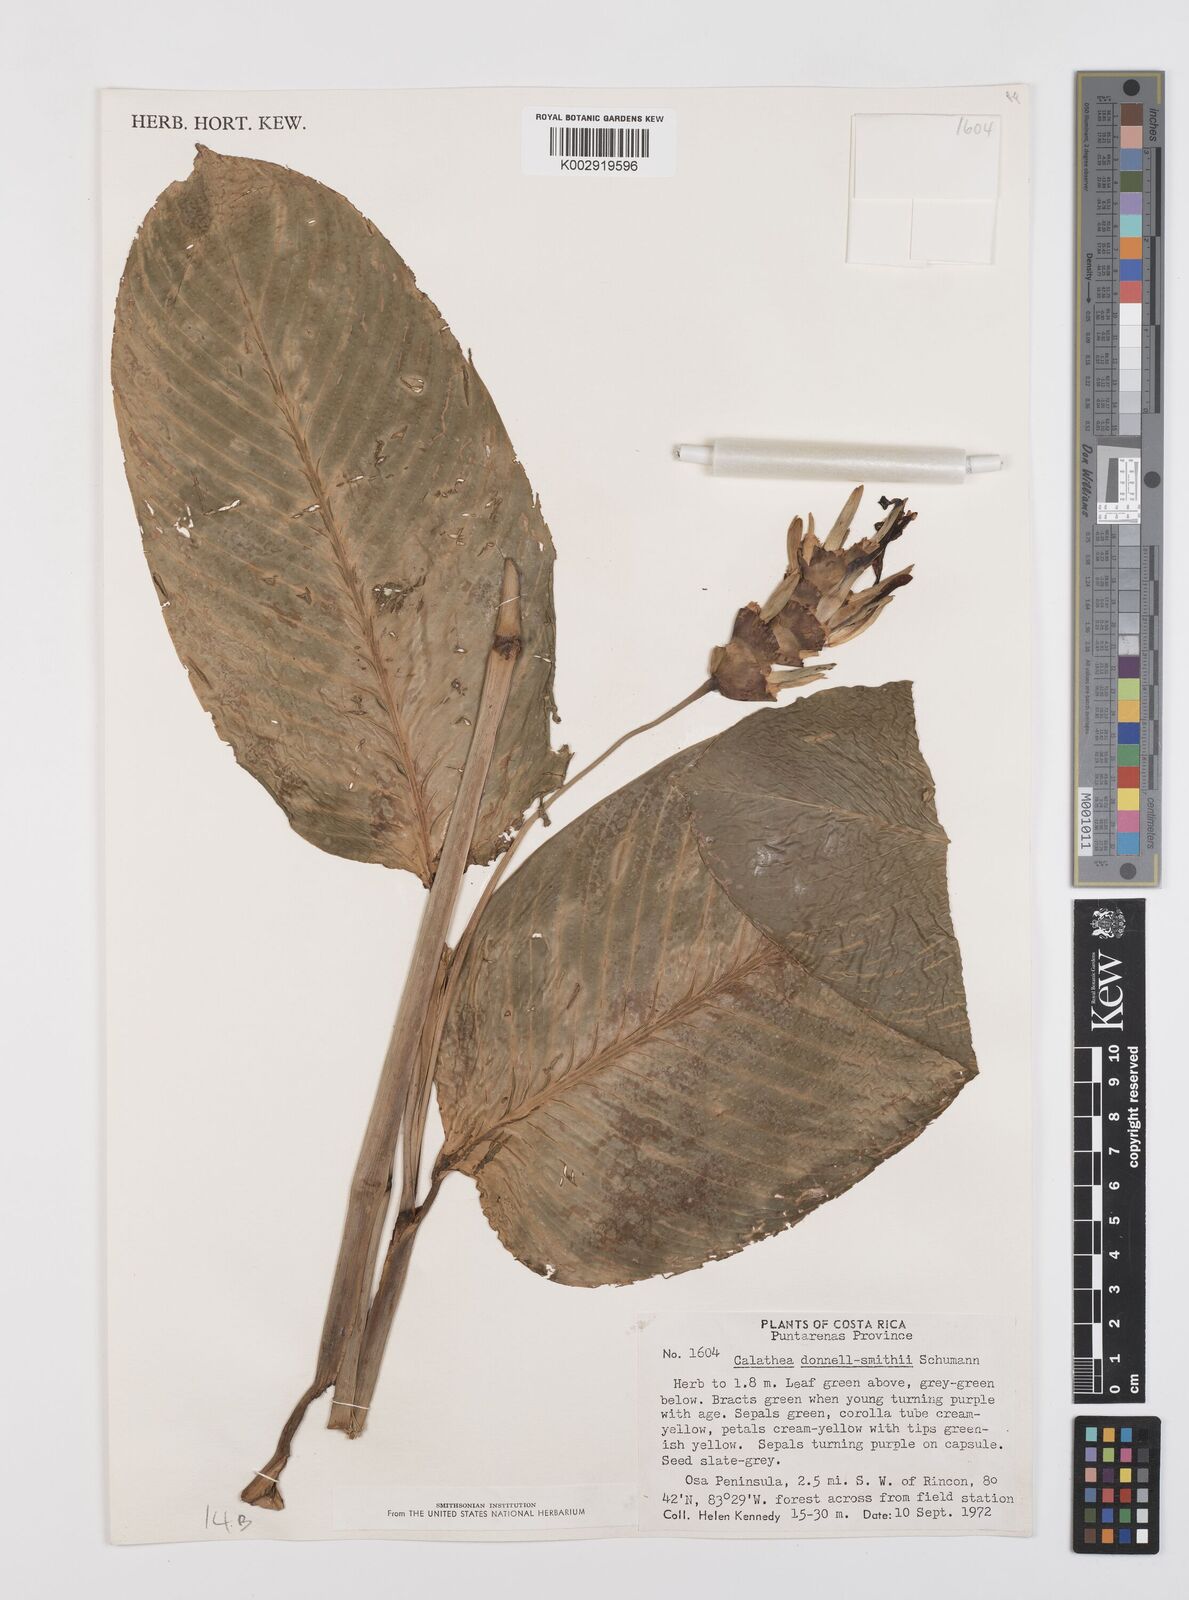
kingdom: Plantae
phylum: Tracheophyta
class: Liliopsida
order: Zingiberales
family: Marantaceae
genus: Goeppertia
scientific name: Goeppertia donnell-smithii
